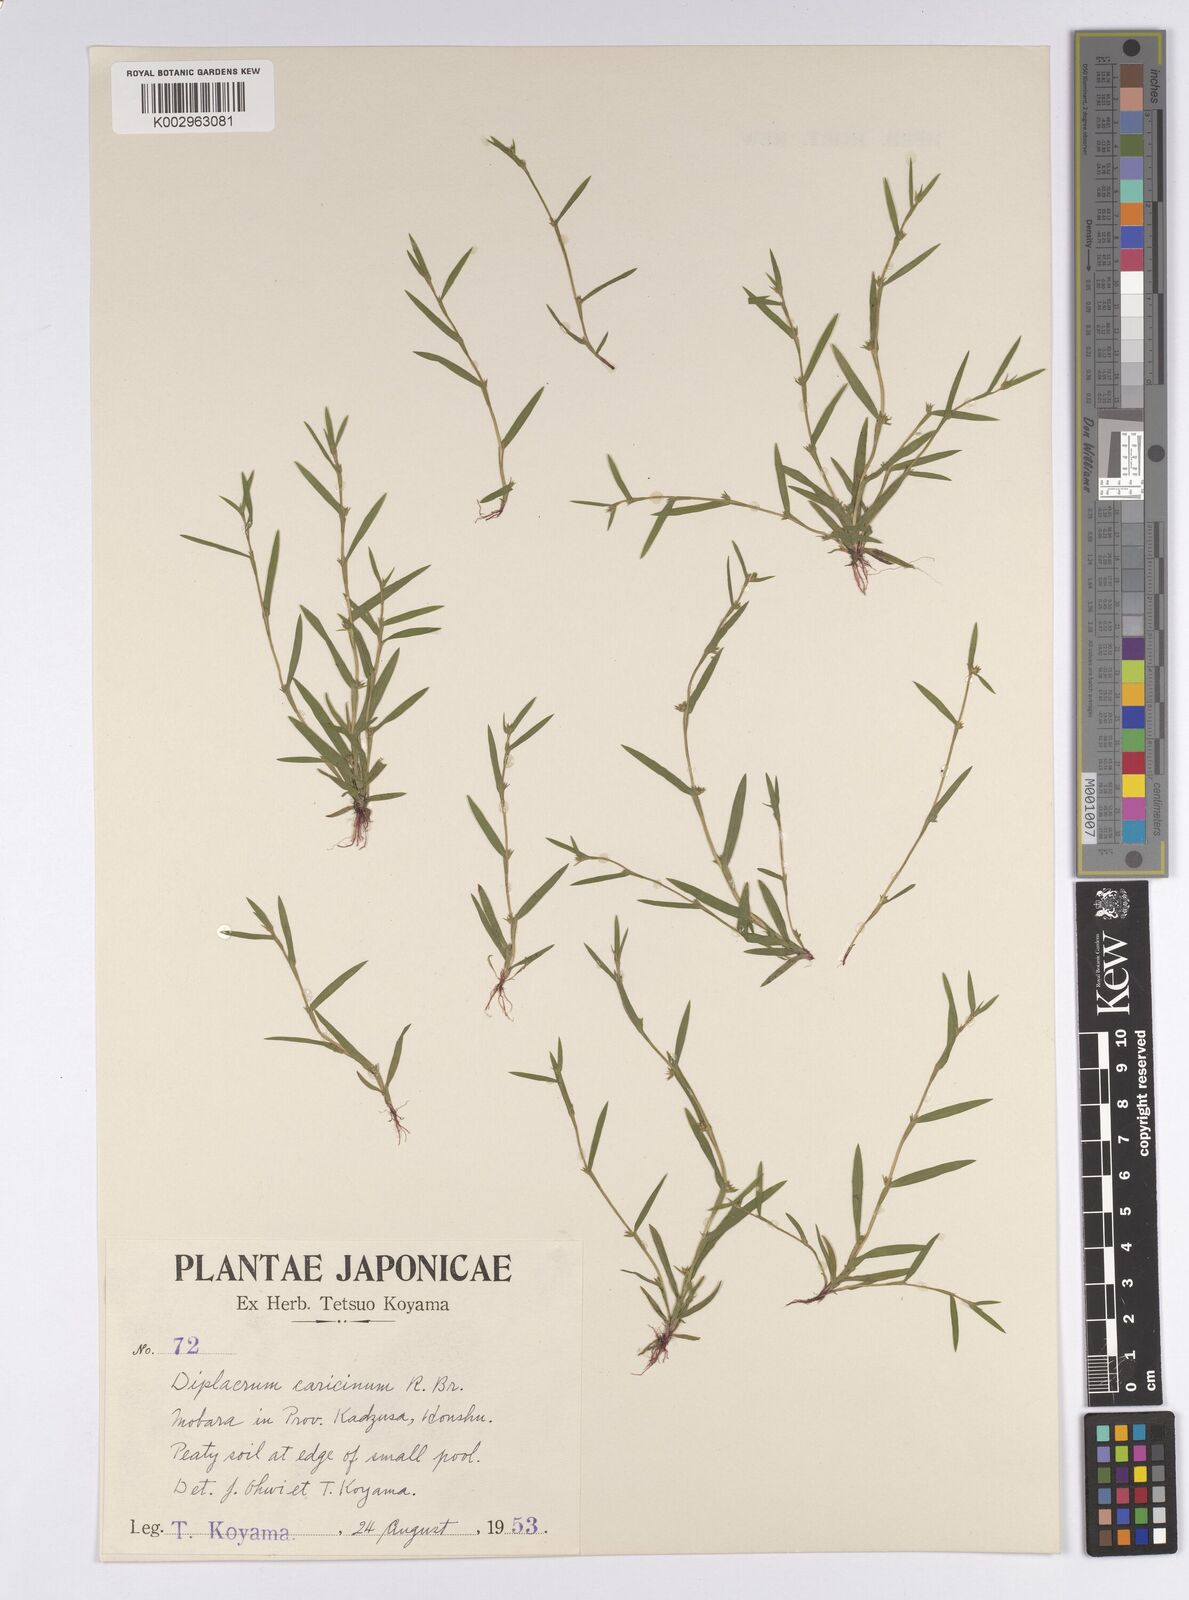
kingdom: Plantae
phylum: Tracheophyta
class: Liliopsida
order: Poales
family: Cyperaceae
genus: Diplacrum
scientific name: Diplacrum caricinum
